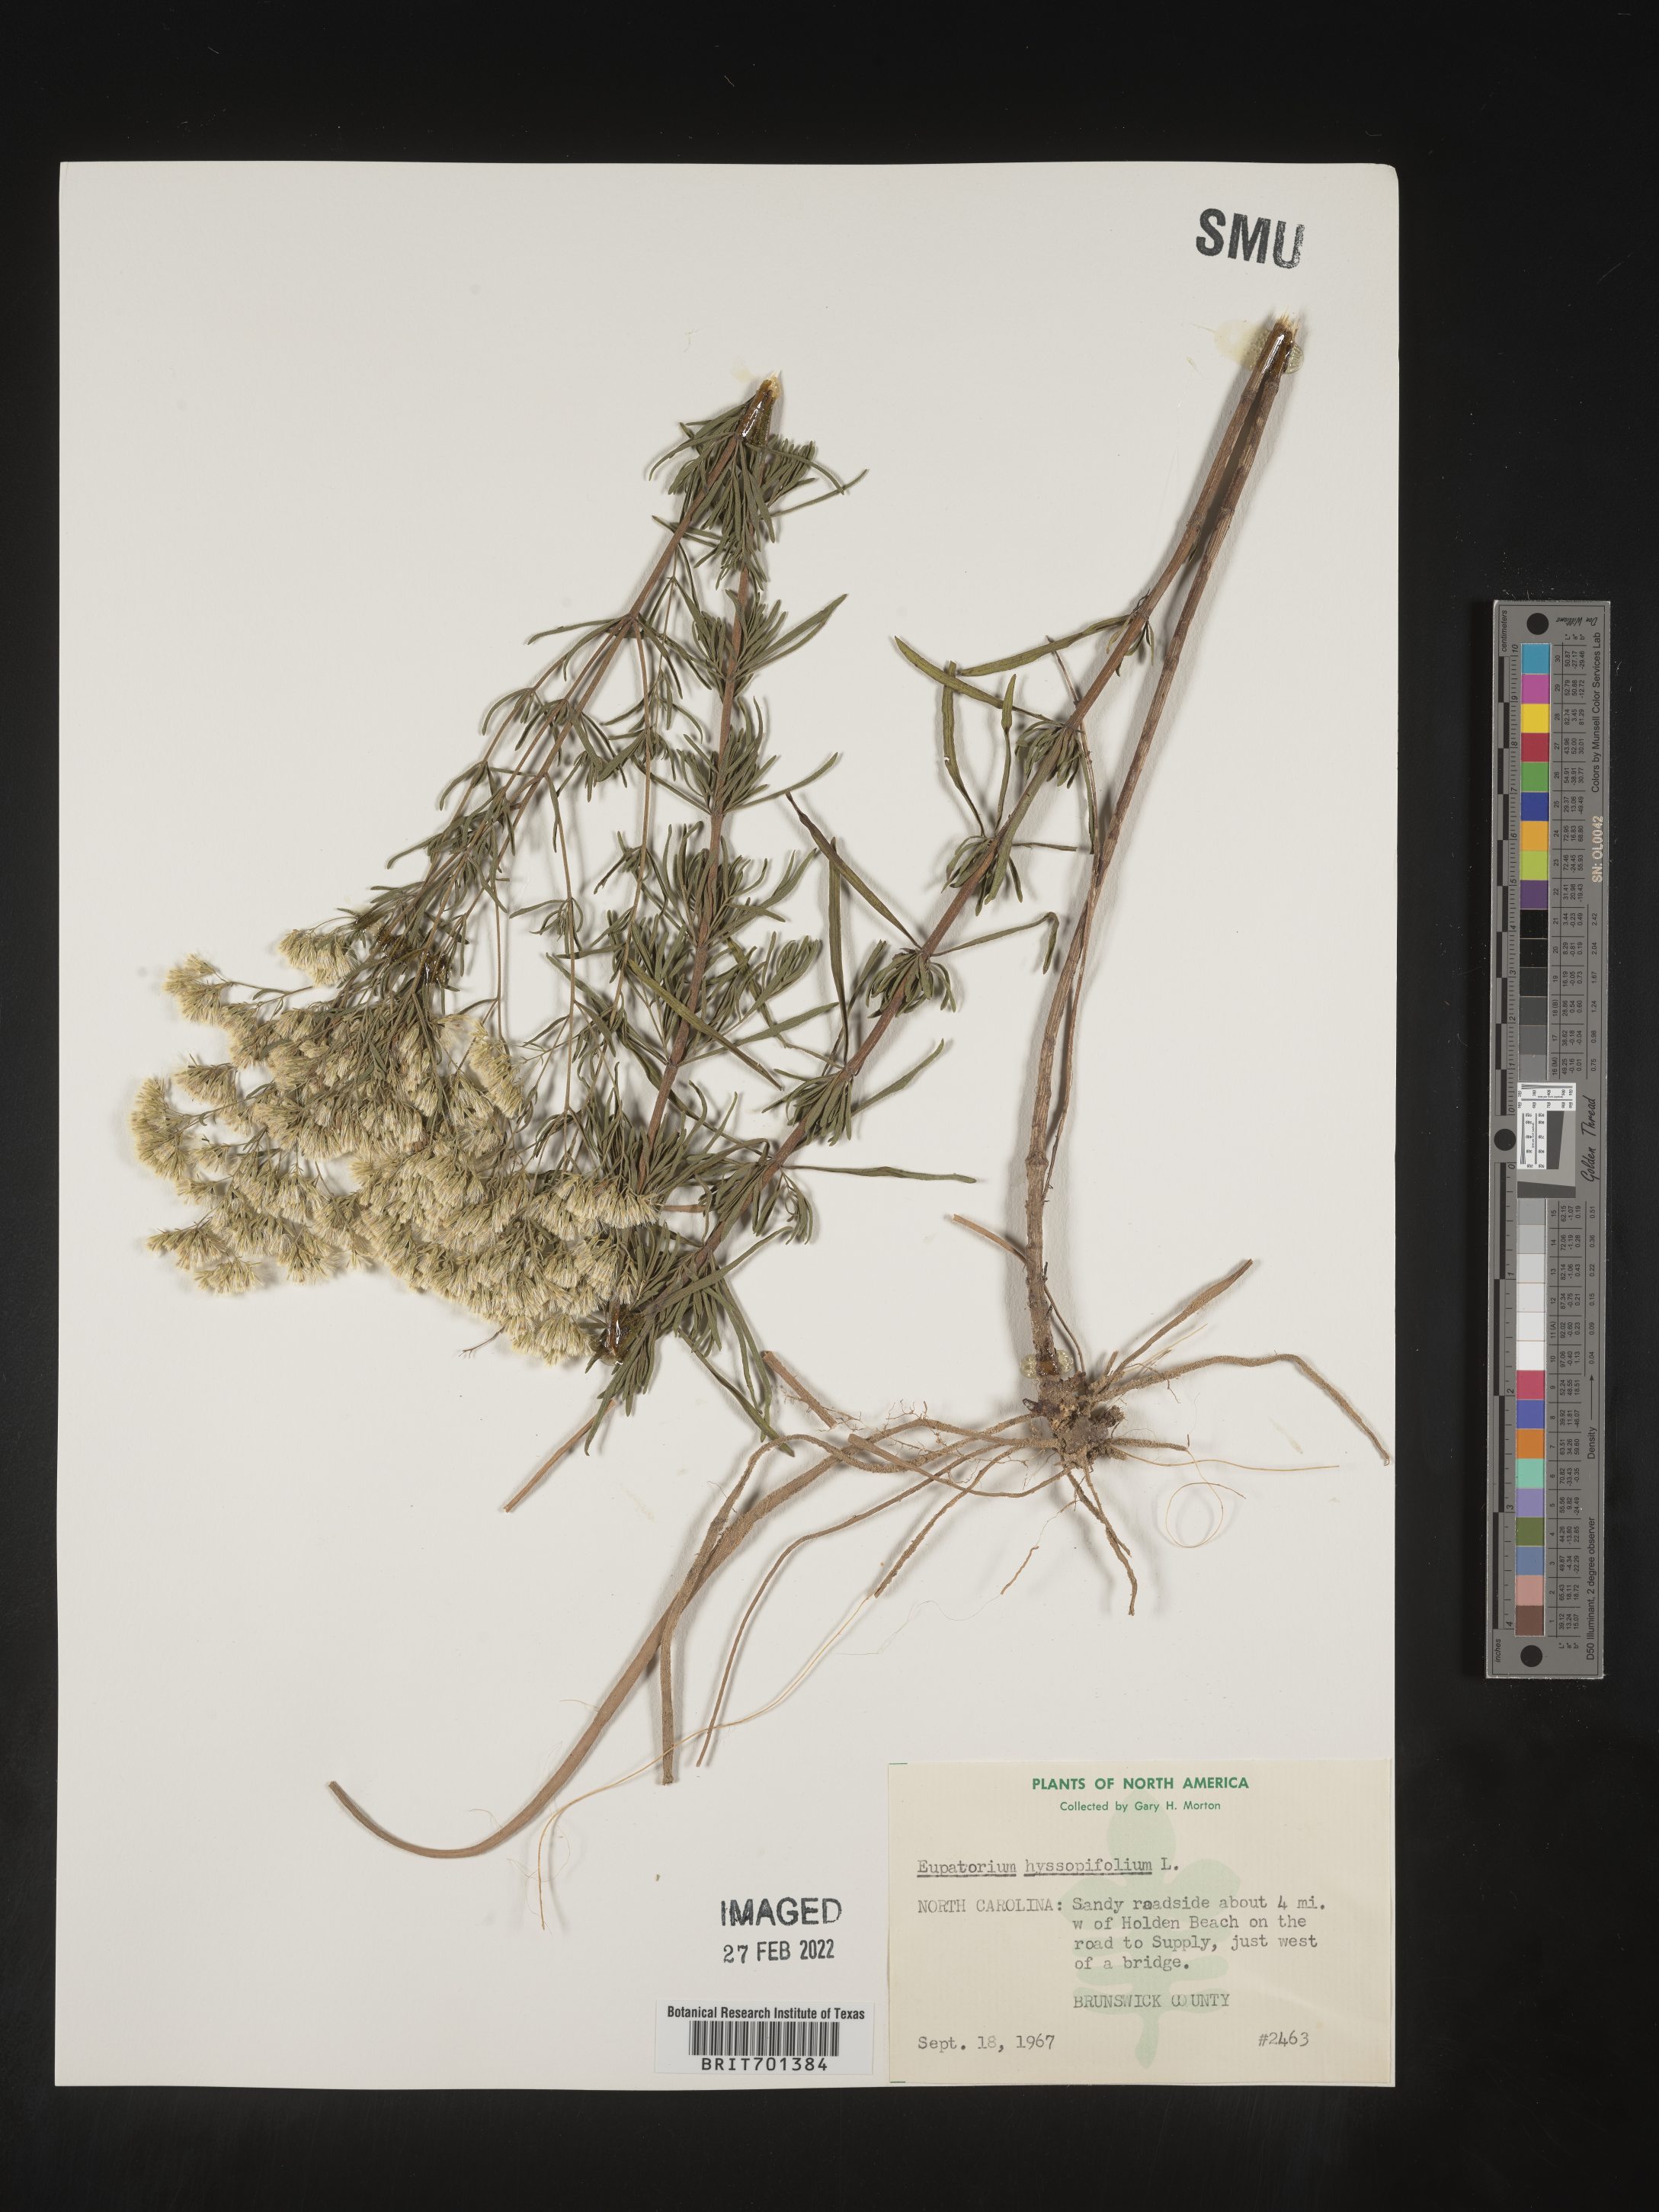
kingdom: Plantae
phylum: Tracheophyta
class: Magnoliopsida
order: Asterales
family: Asteraceae
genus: Eupatorium
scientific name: Eupatorium hyssopifolium
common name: Hyssop-leaf thoroughwort
